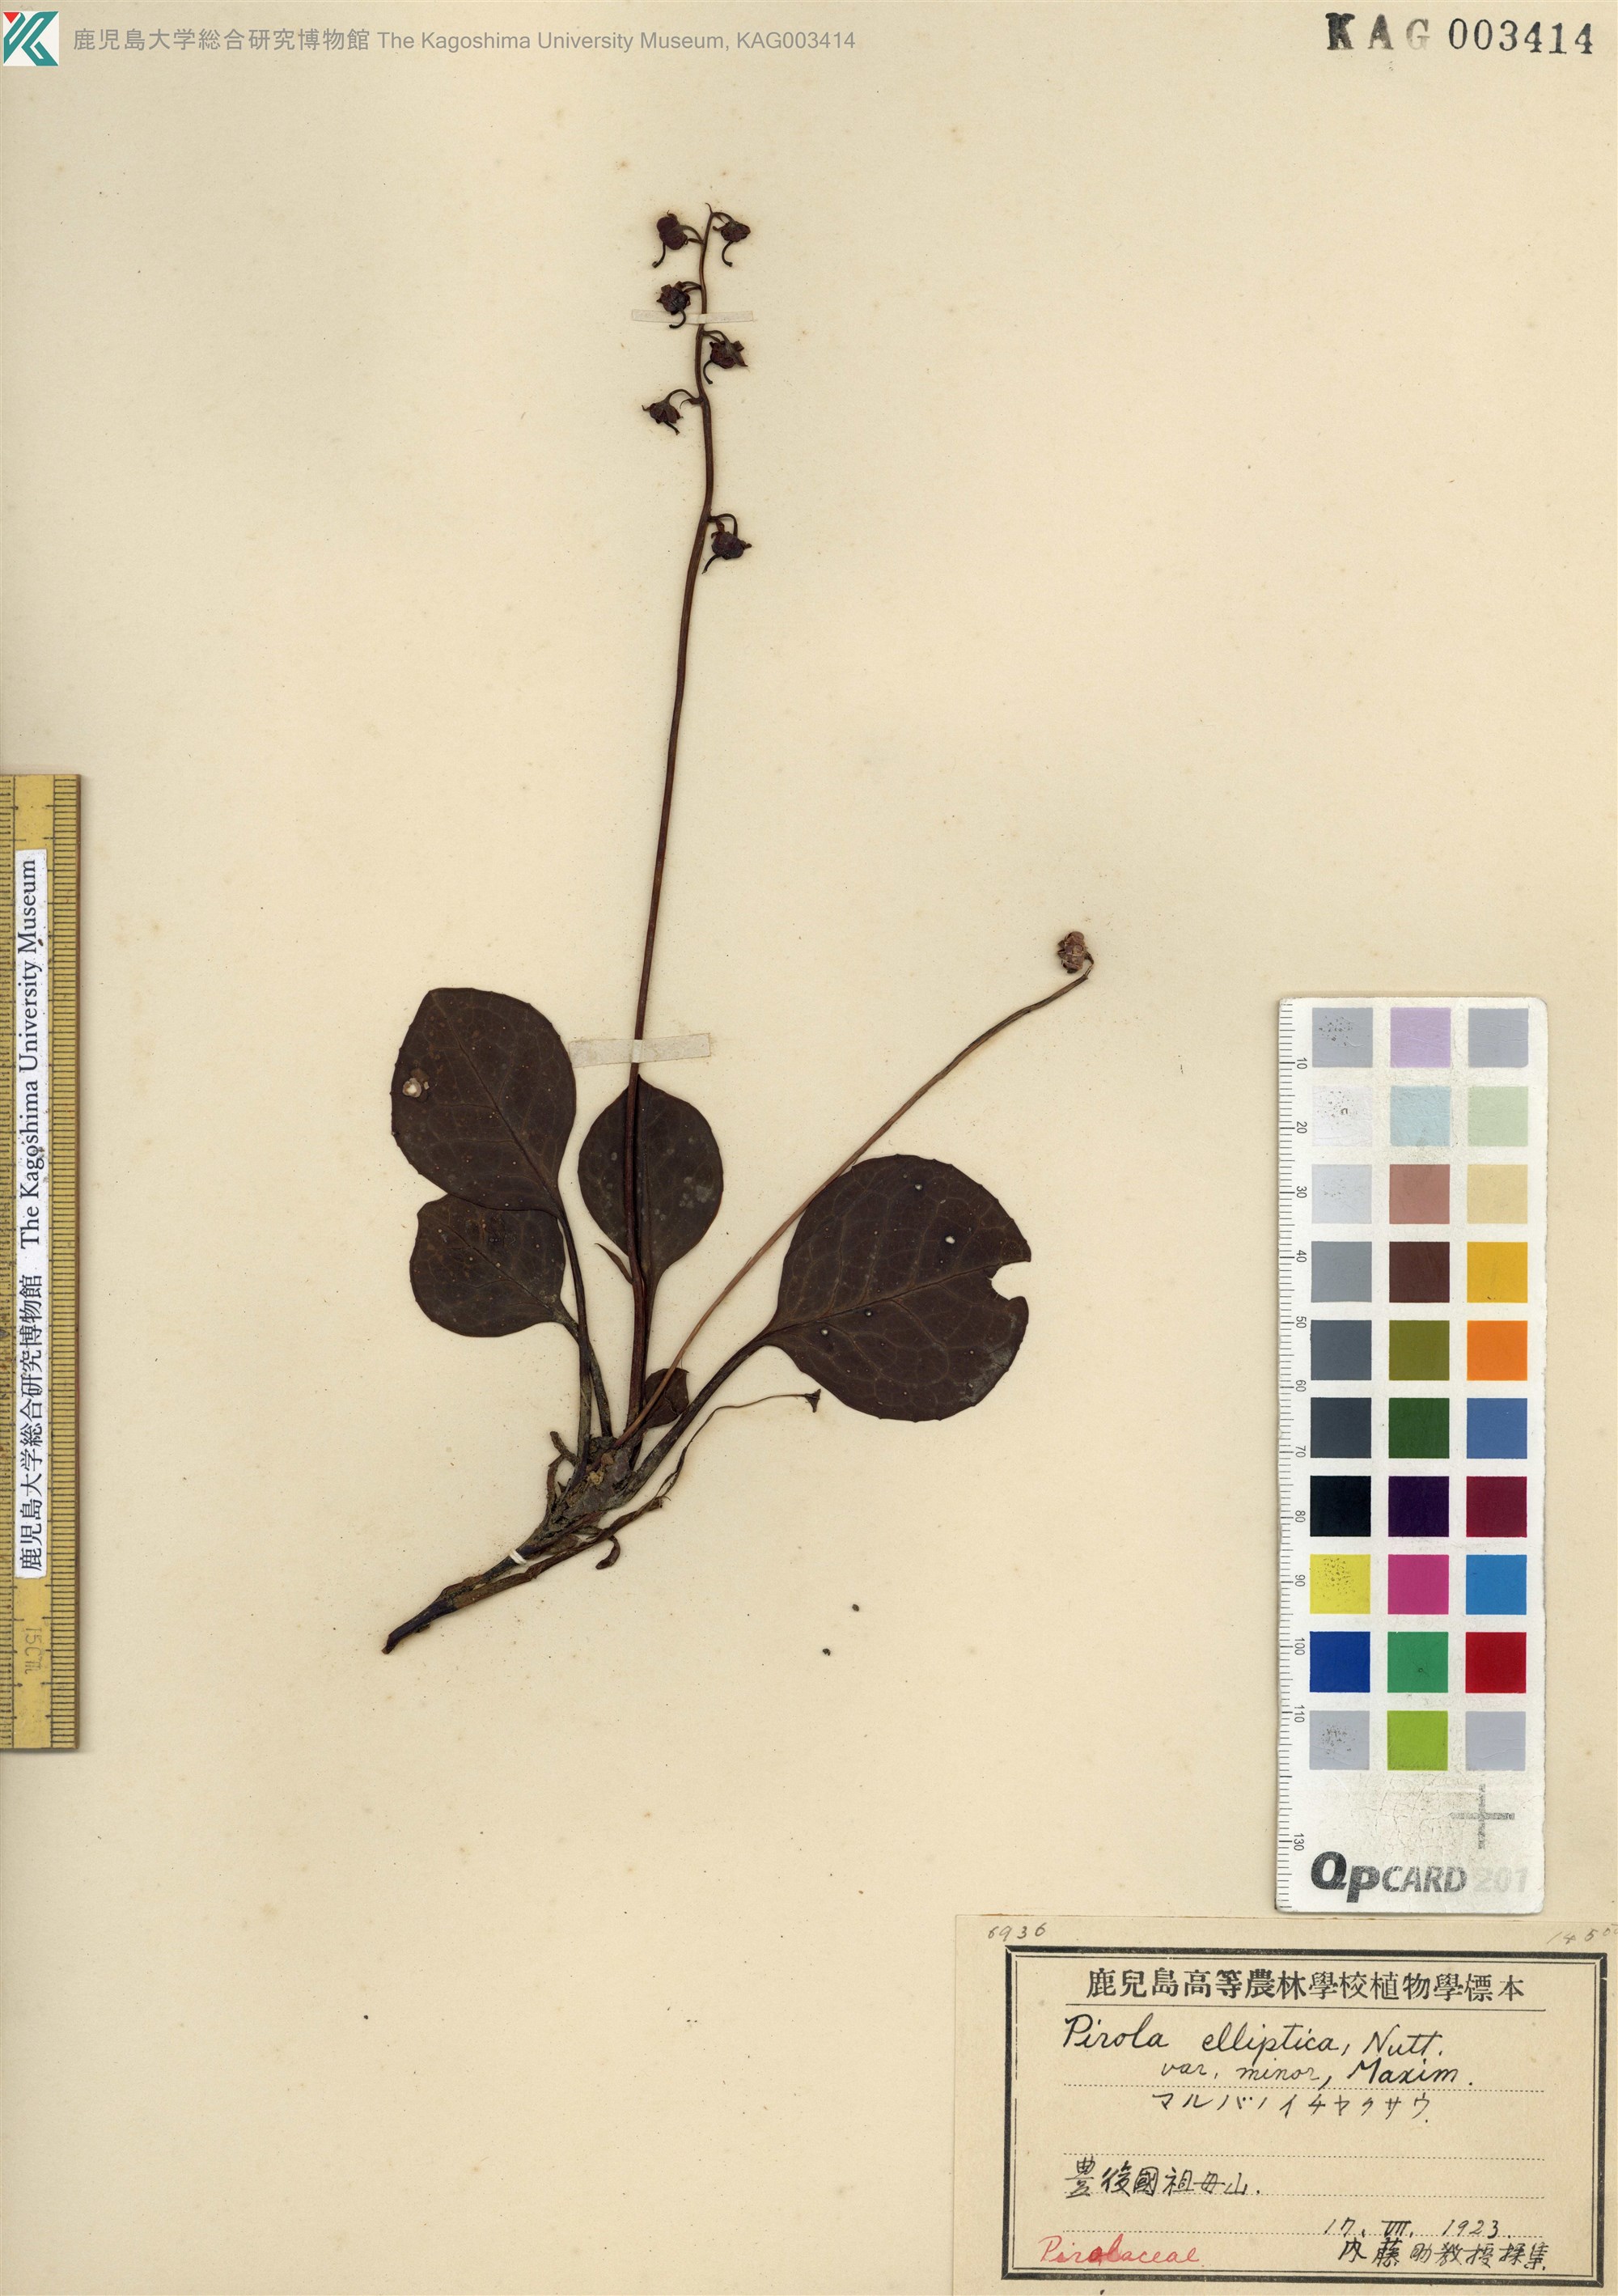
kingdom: Plantae
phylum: Tracheophyta
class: Magnoliopsida
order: Ericales
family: Ericaceae
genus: Pyrola
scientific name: Pyrola japonica
